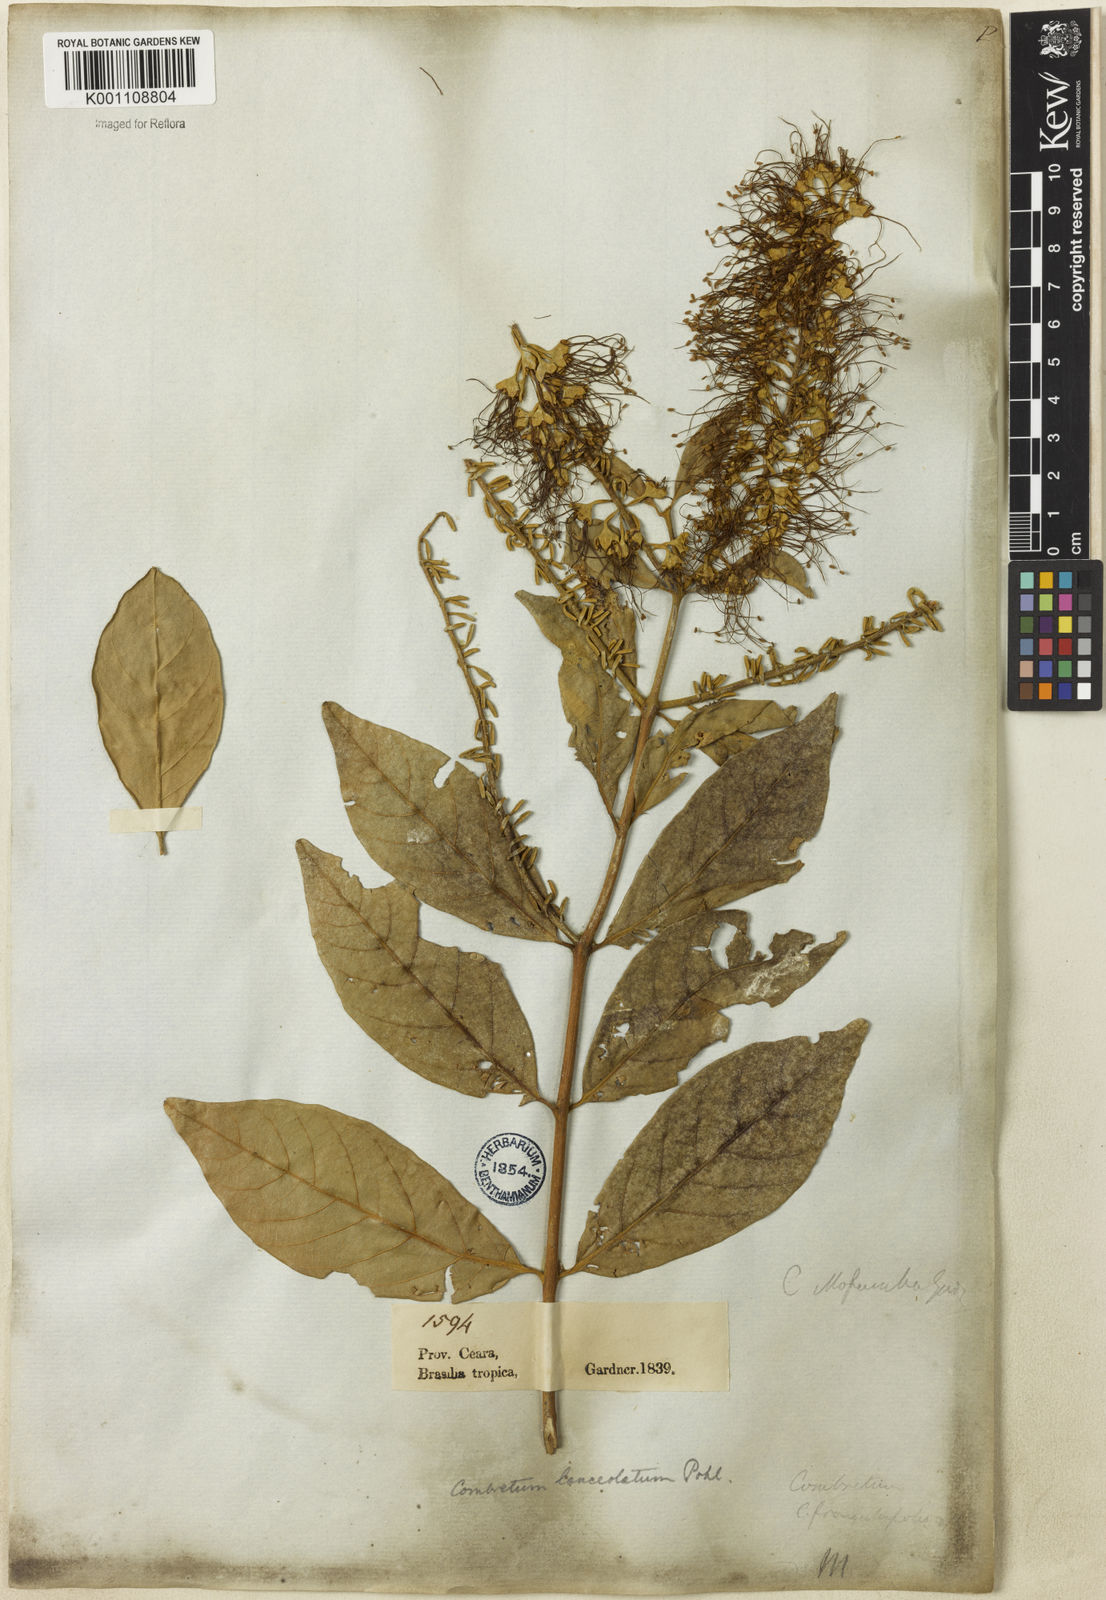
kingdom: Plantae
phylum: Tracheophyta
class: Magnoliopsida
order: Myrtales
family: Combretaceae
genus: Combretum
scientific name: Combretum lanceolatum
